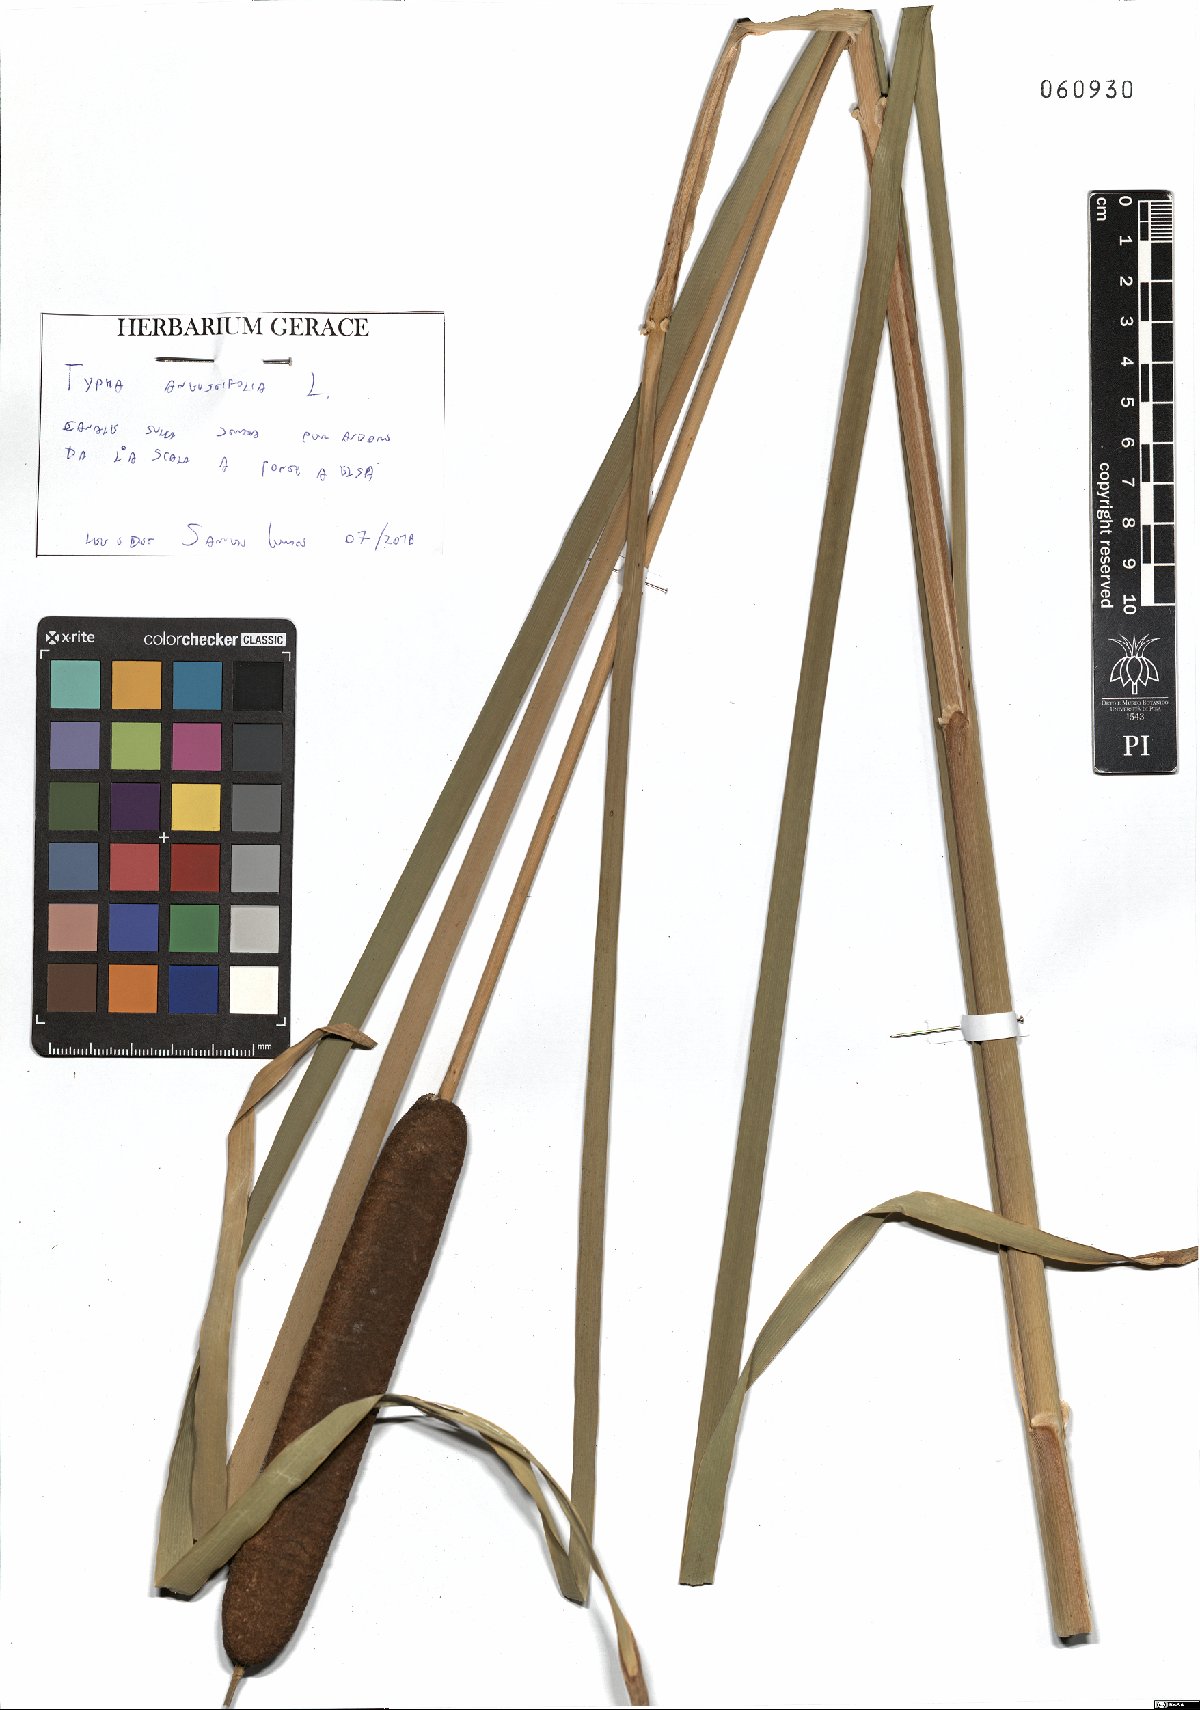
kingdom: Plantae
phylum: Tracheophyta
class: Liliopsida
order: Poales
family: Typhaceae
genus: Typha
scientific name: Typha angustifolia
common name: Lesser bulrush
